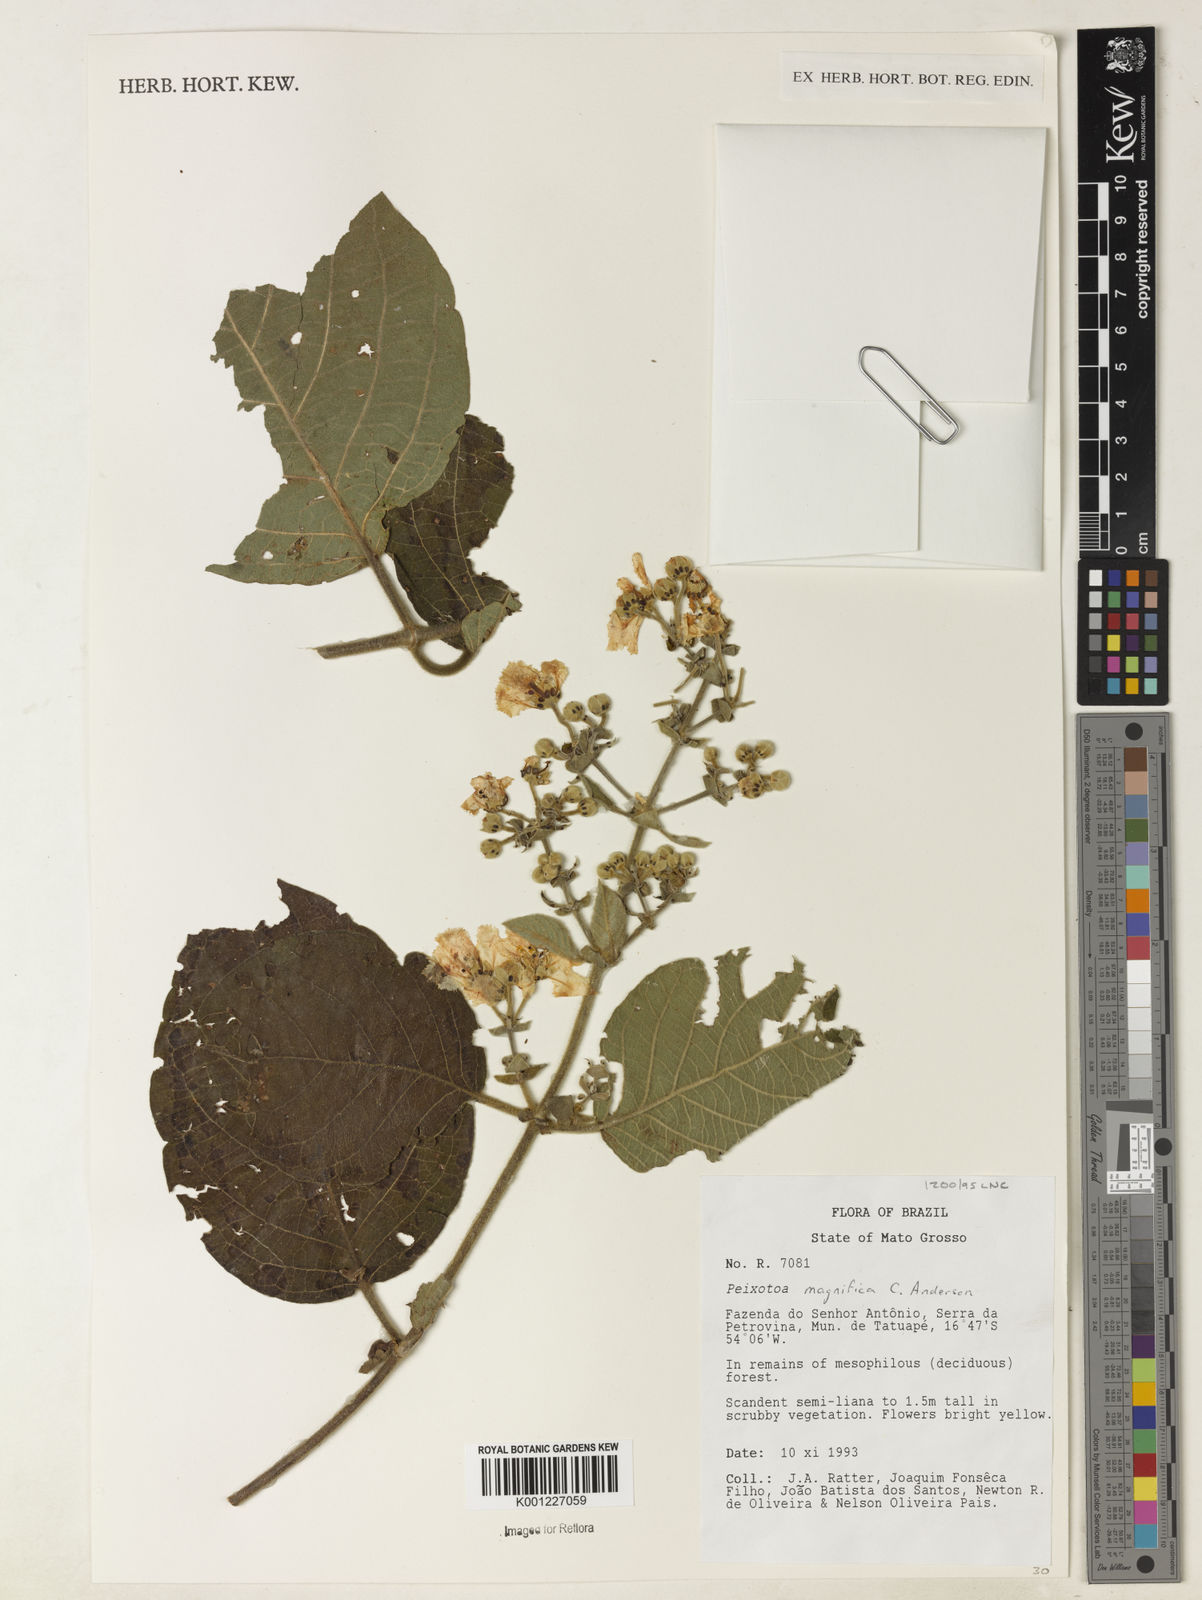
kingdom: Plantae
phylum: Tracheophyta
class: Magnoliopsida
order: Malpighiales
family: Malpighiaceae
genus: Peixotoa
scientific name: Peixotoa magnifica
